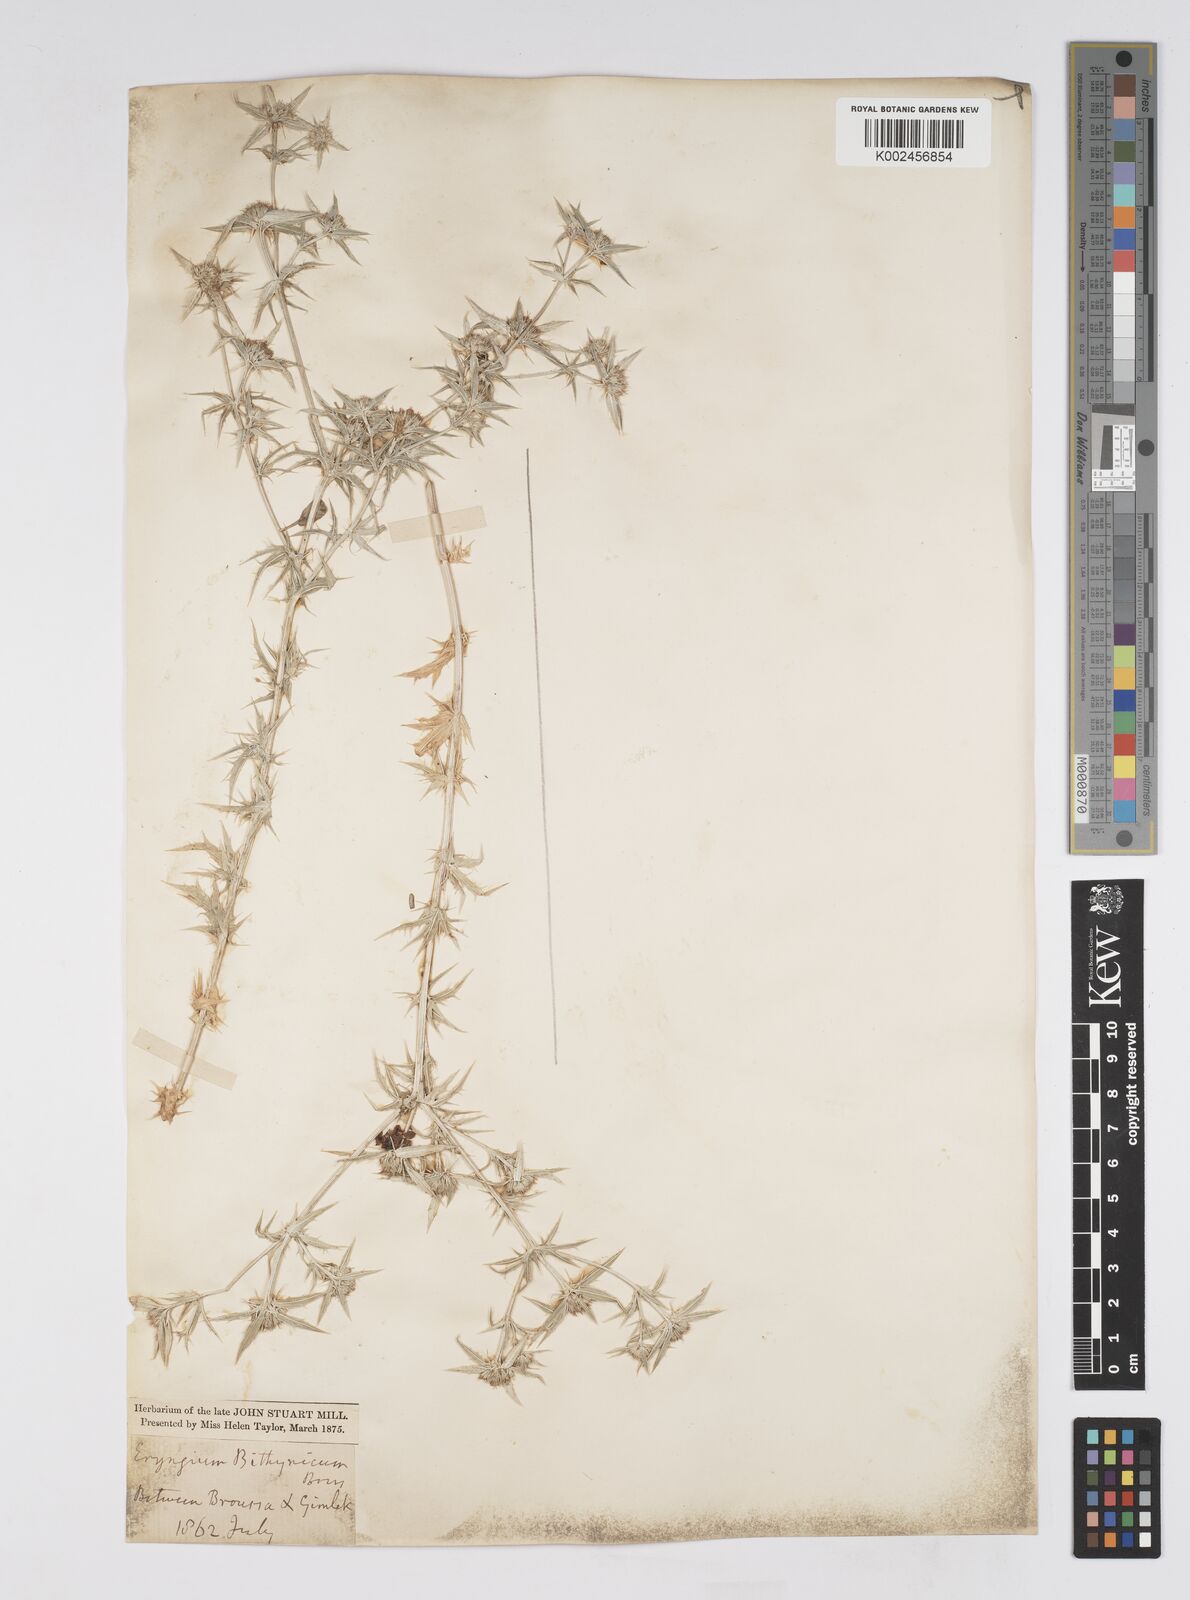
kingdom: Plantae
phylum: Tracheophyta
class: Magnoliopsida
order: Apiales
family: Apiaceae
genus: Eryngium
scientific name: Eryngium bithynicum
